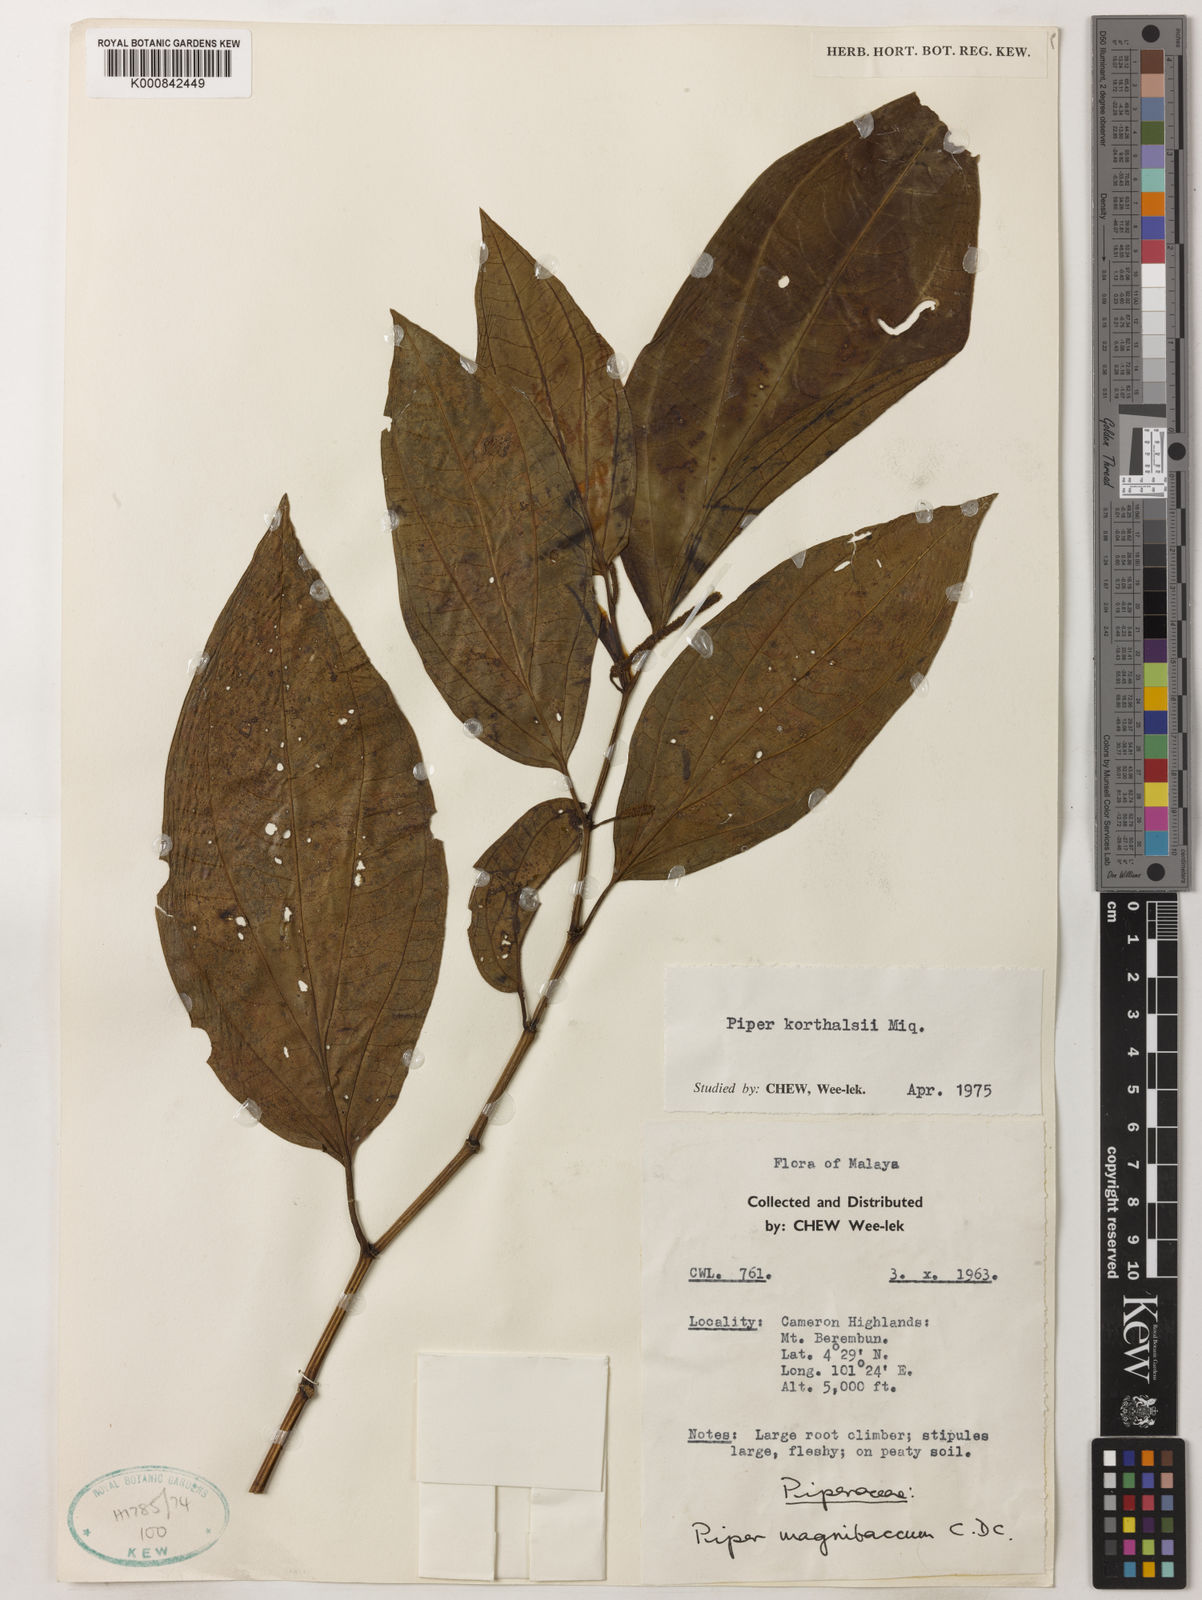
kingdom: Plantae
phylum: Tracheophyta
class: Magnoliopsida
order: Piperales
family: Piperaceae
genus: Piper
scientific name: Piper quinqueangulatum
